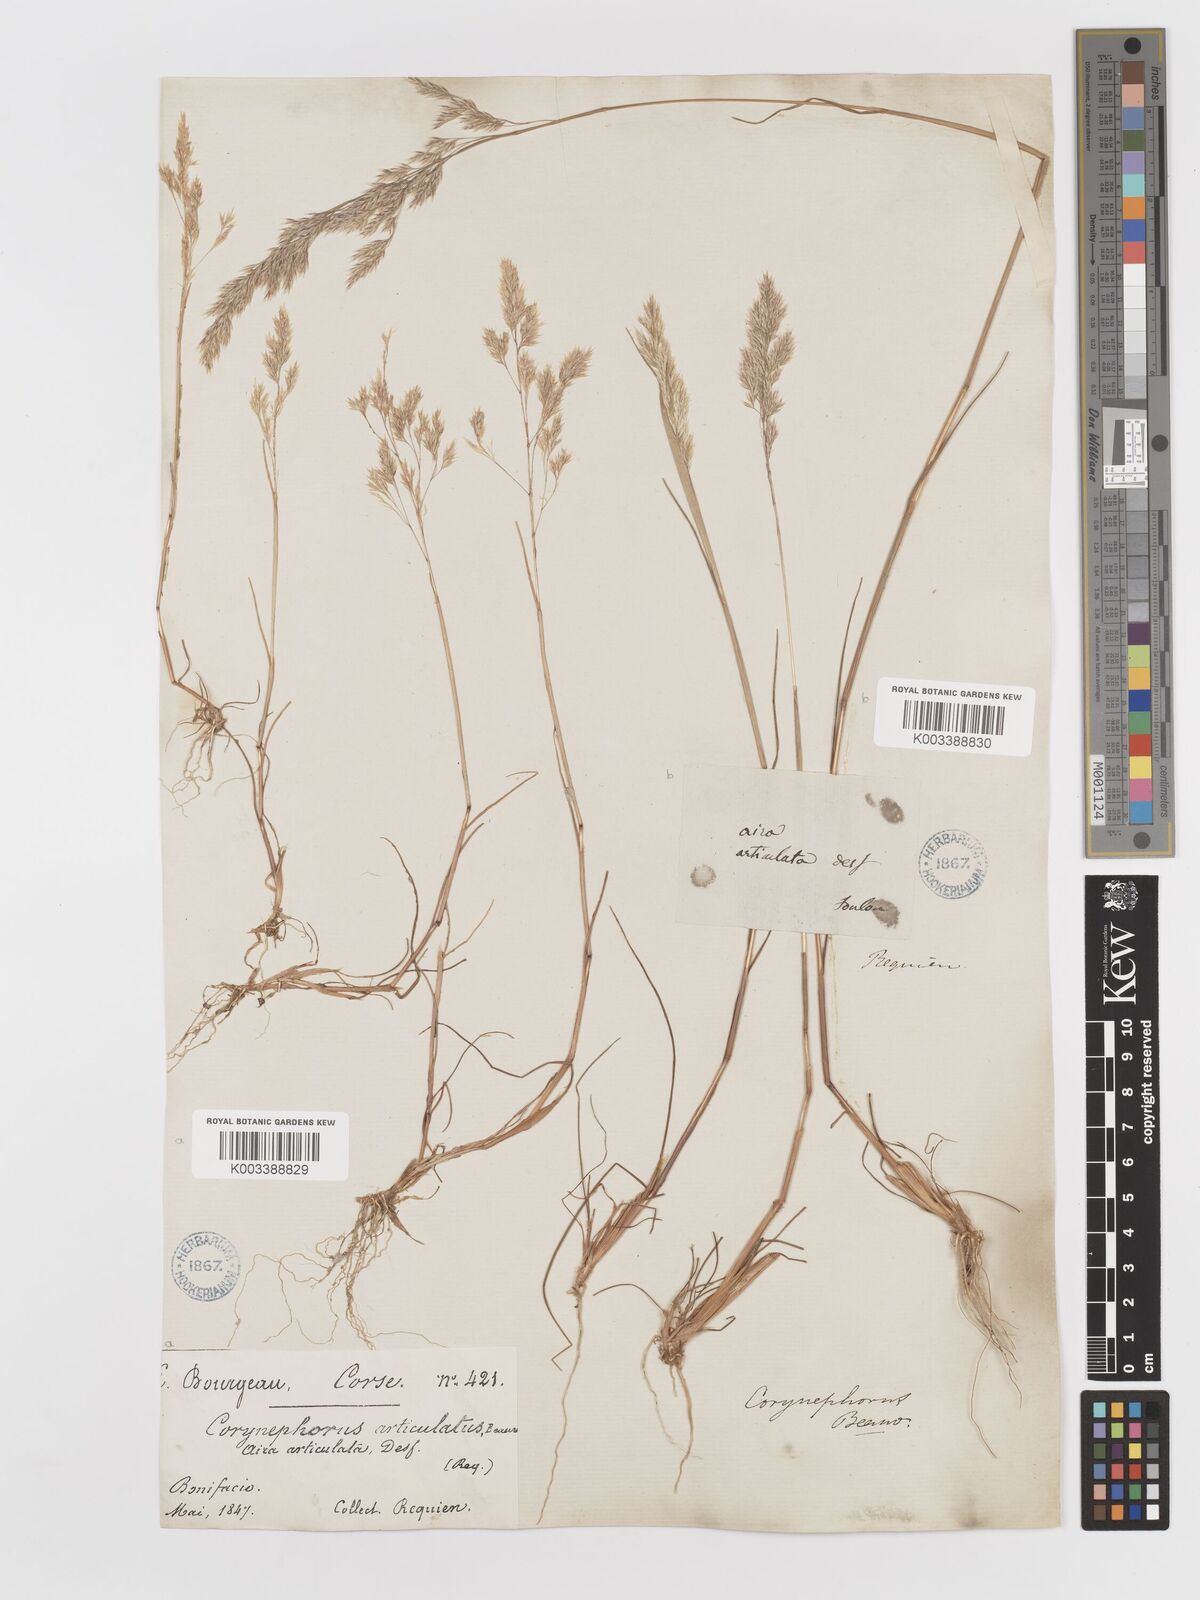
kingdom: Plantae
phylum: Tracheophyta
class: Liliopsida
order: Poales
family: Poaceae
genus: Corynephorus
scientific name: Corynephorus divaricatus
